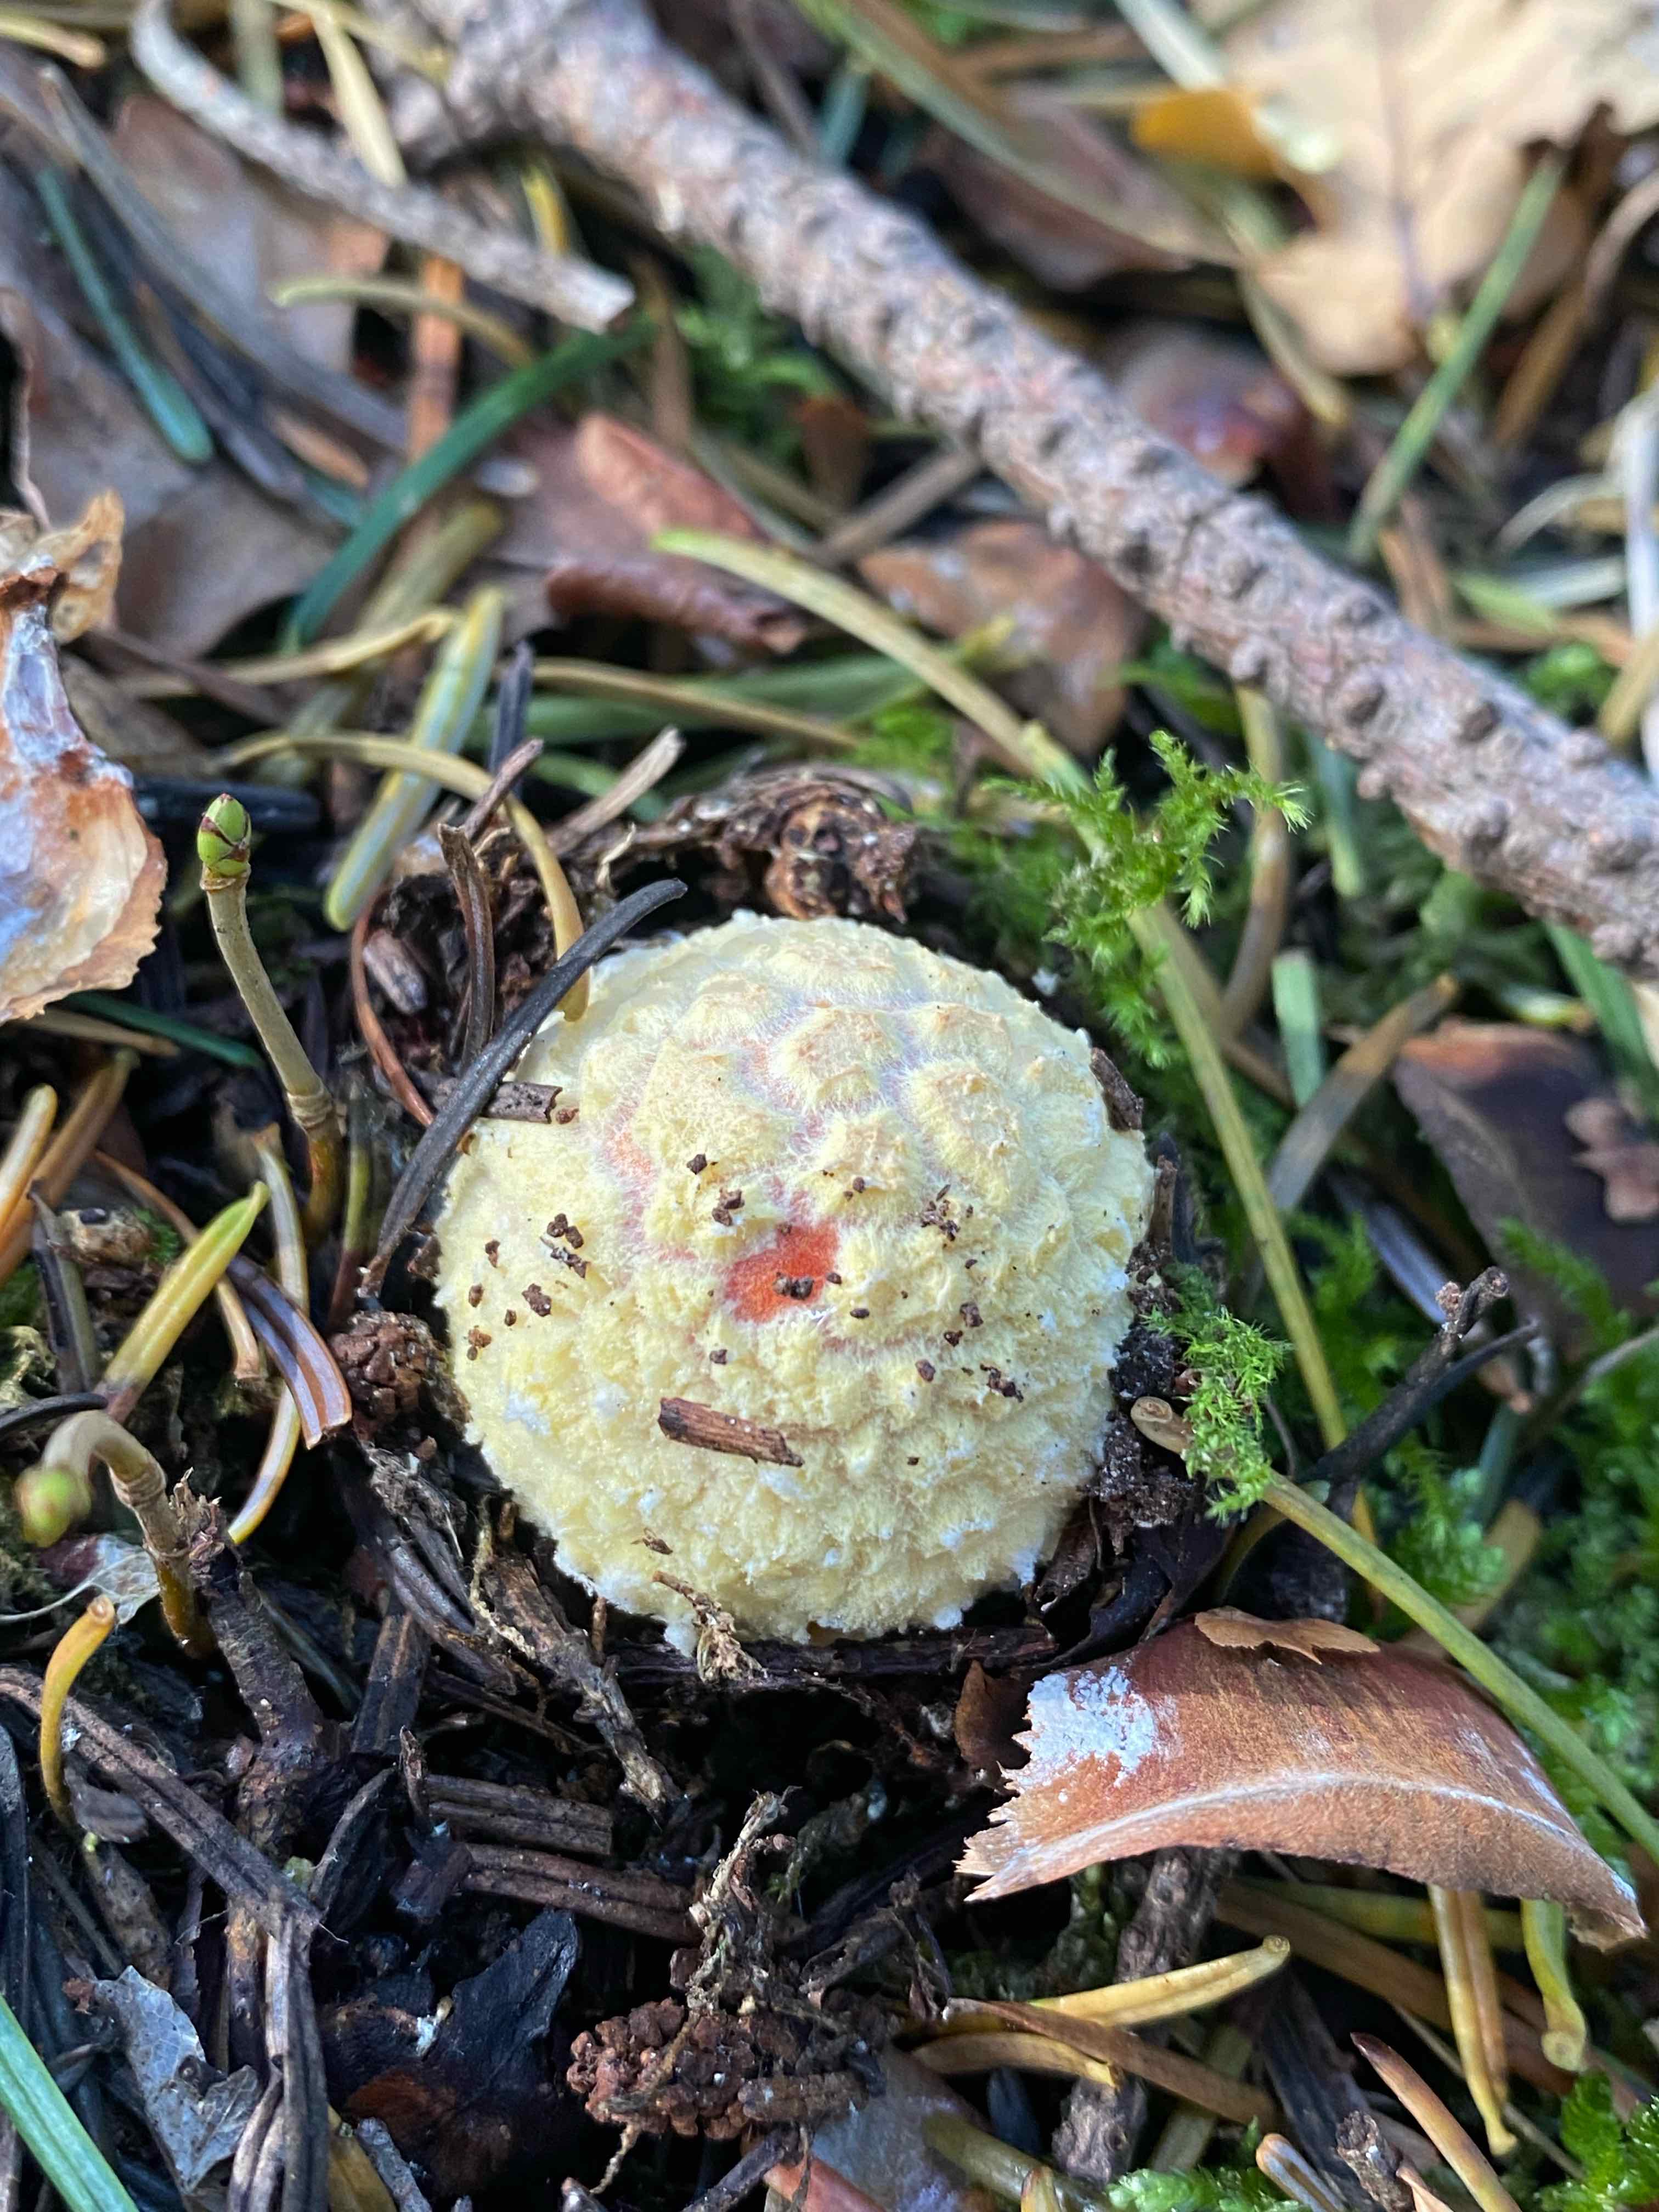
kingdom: Fungi
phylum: Basidiomycota
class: Agaricomycetes
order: Agaricales
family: Amanitaceae
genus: Amanita
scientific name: Amanita muscaria
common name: rød fluesvamp
